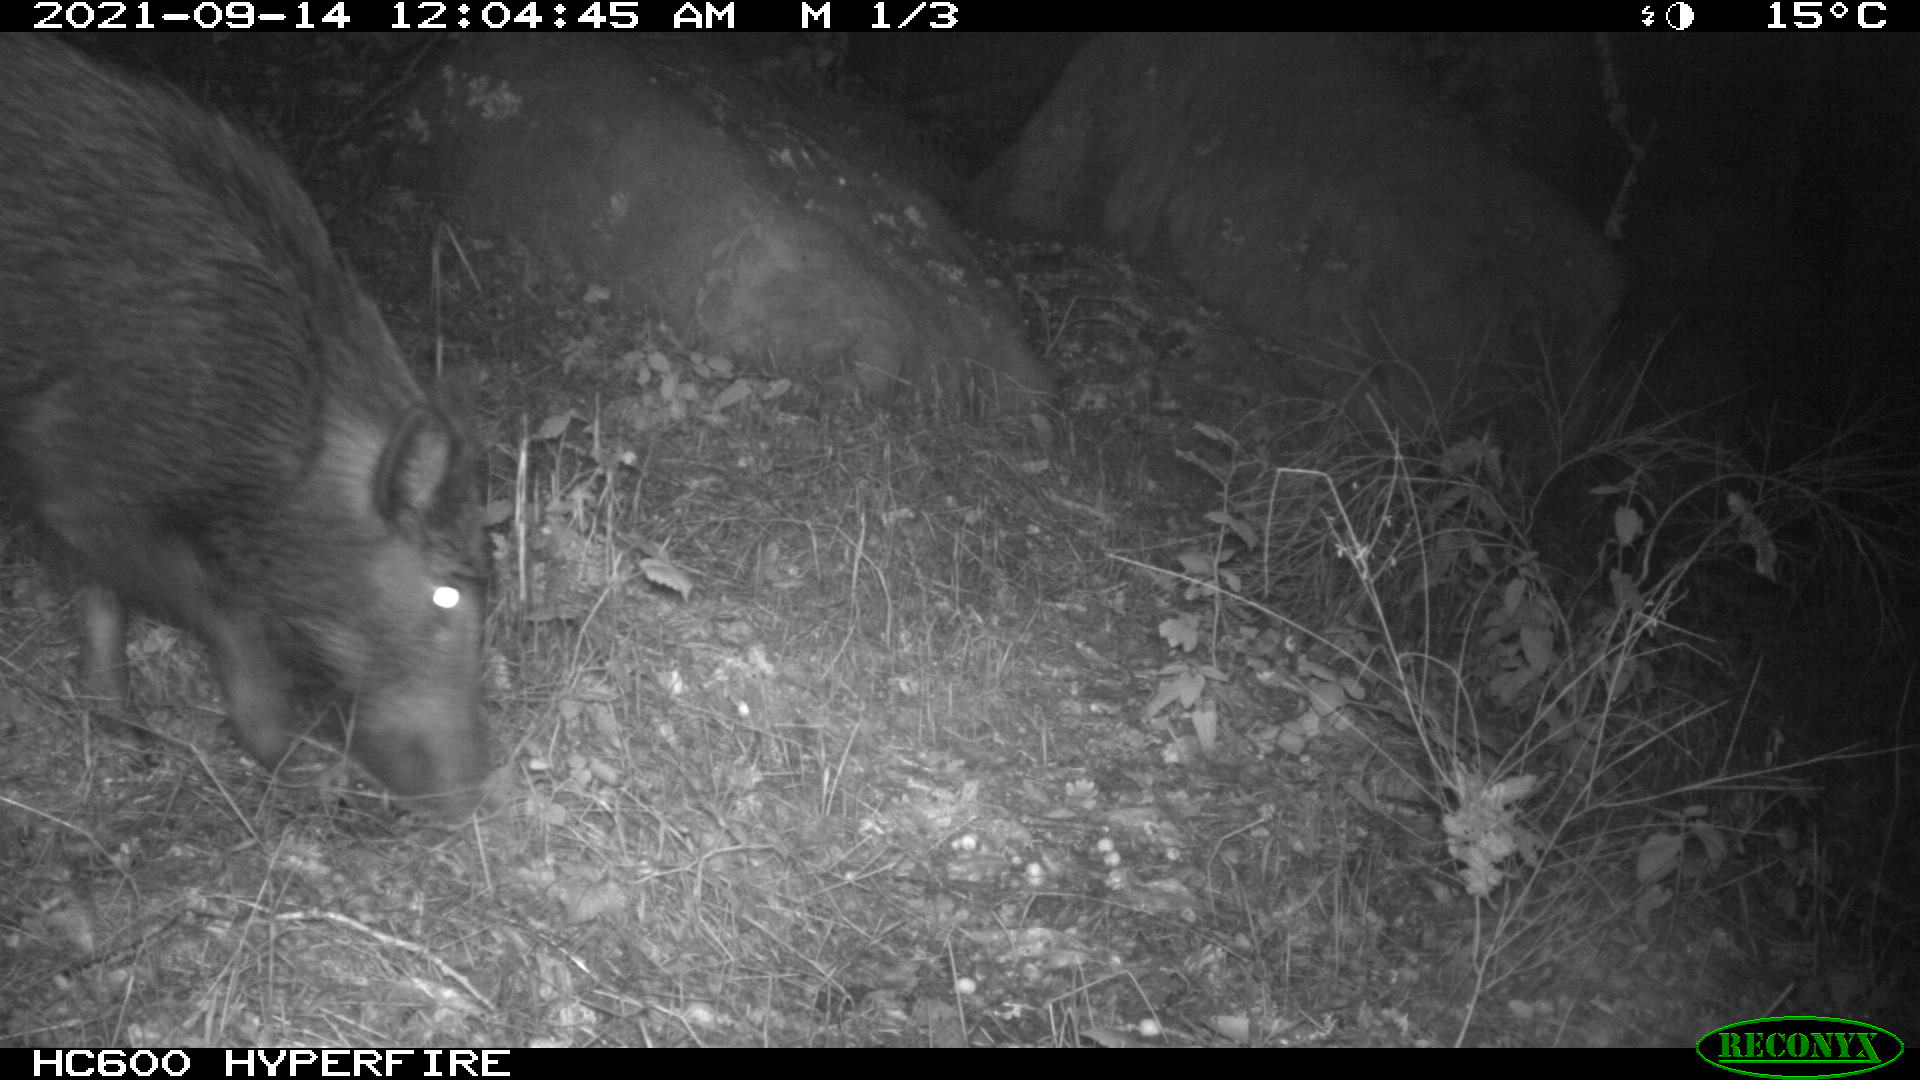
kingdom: Animalia
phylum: Chordata
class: Mammalia
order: Artiodactyla
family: Suidae
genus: Sus
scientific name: Sus scrofa
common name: Wild boar
